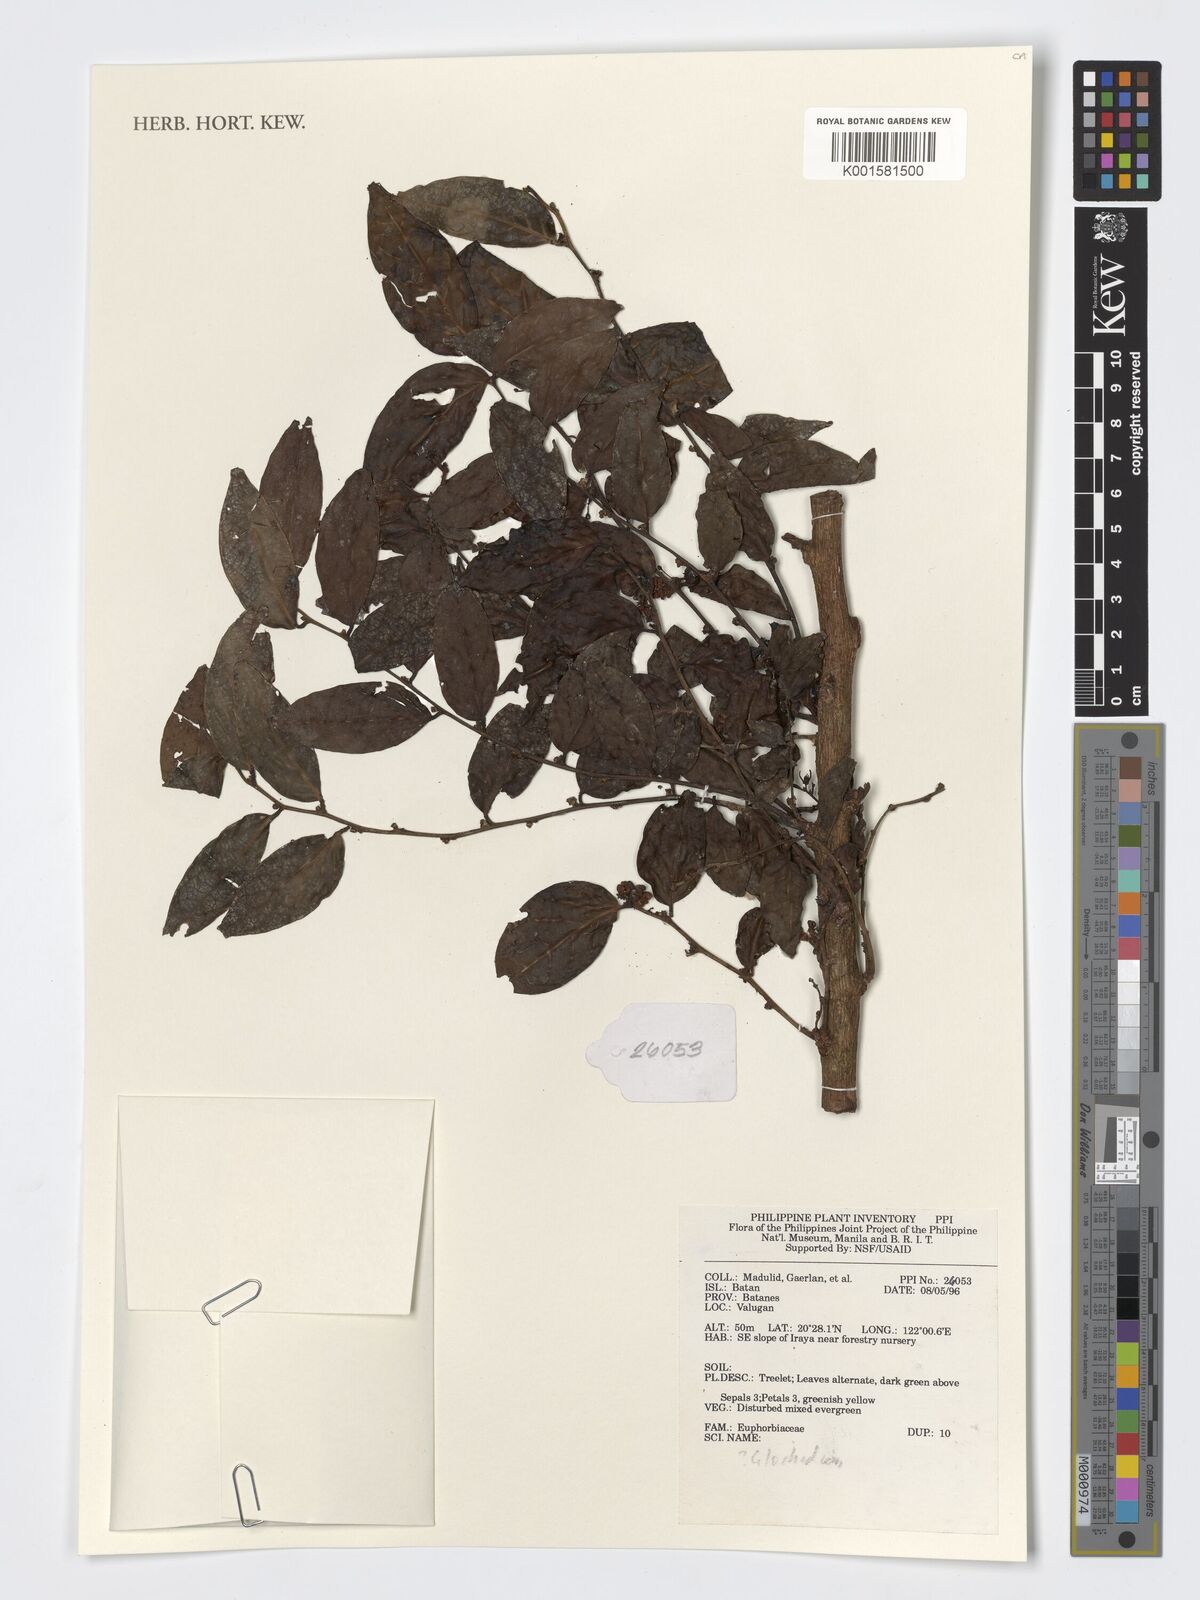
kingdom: Plantae
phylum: Tracheophyta
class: Magnoliopsida
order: Malpighiales
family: Phyllanthaceae
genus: Glochidion
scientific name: Glochidion
